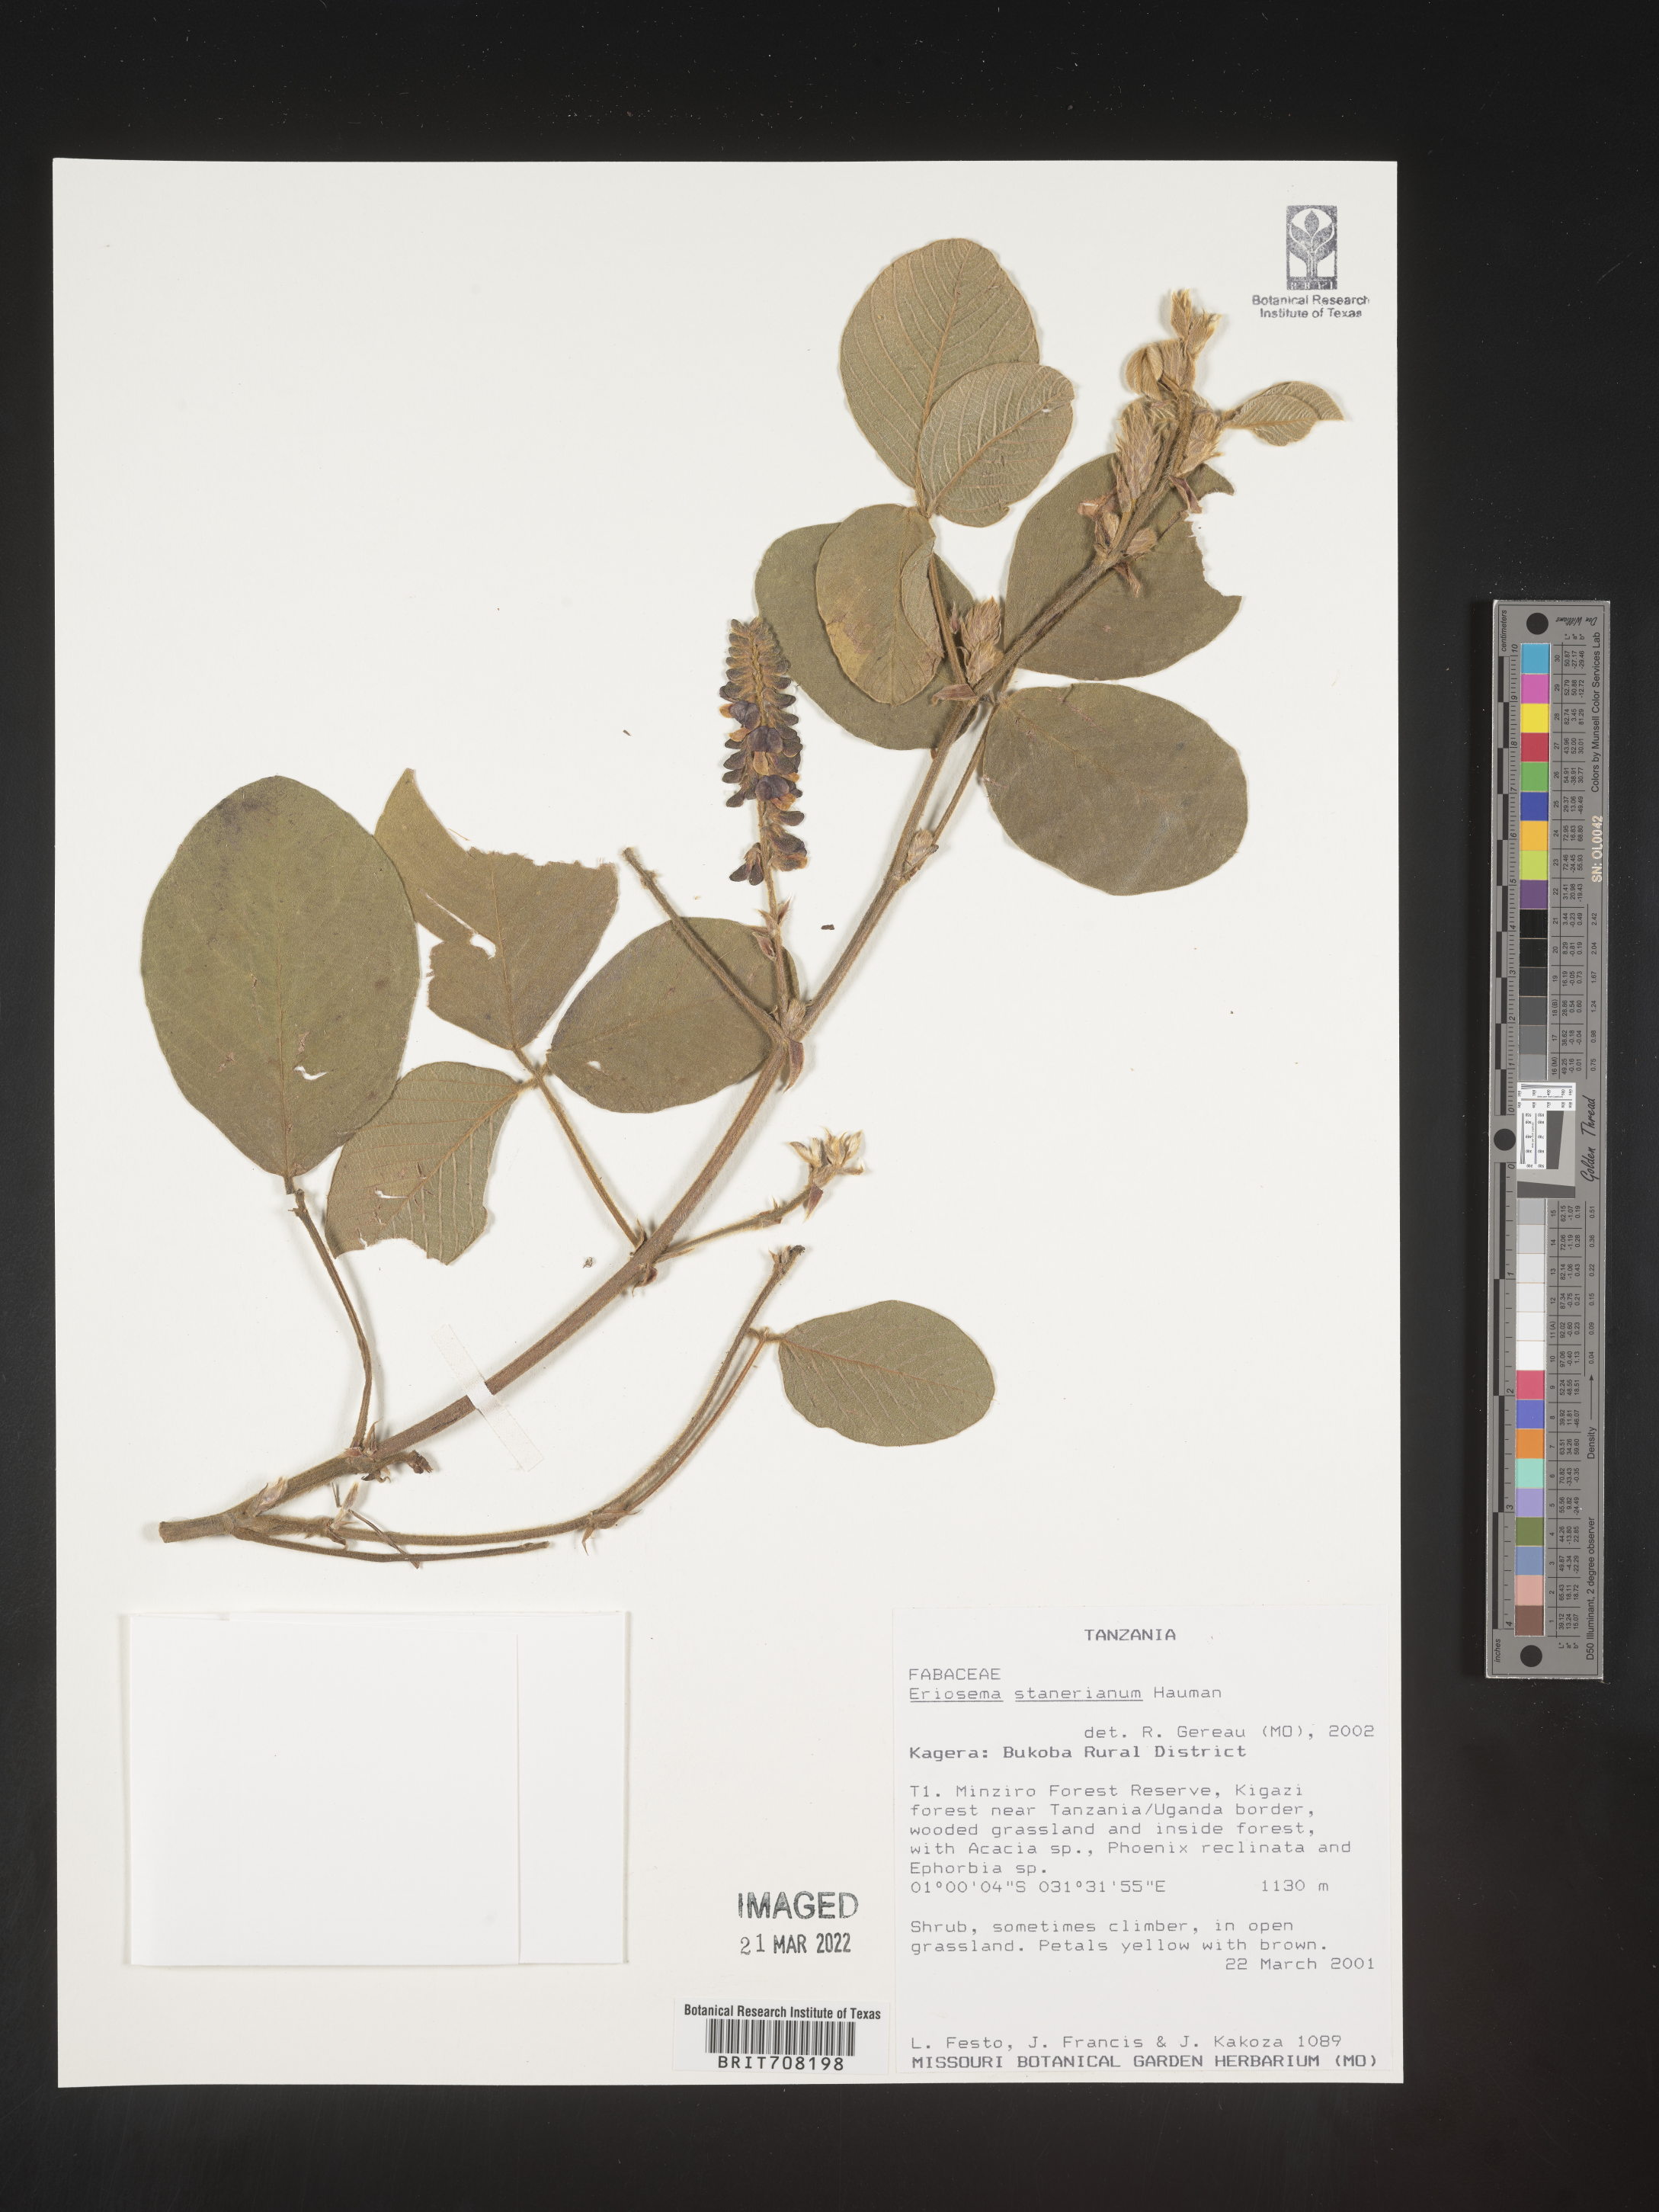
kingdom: Plantae
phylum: Tracheophyta
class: Magnoliopsida
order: Fabales
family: Fabaceae
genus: Eriosema
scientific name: Eriosema
